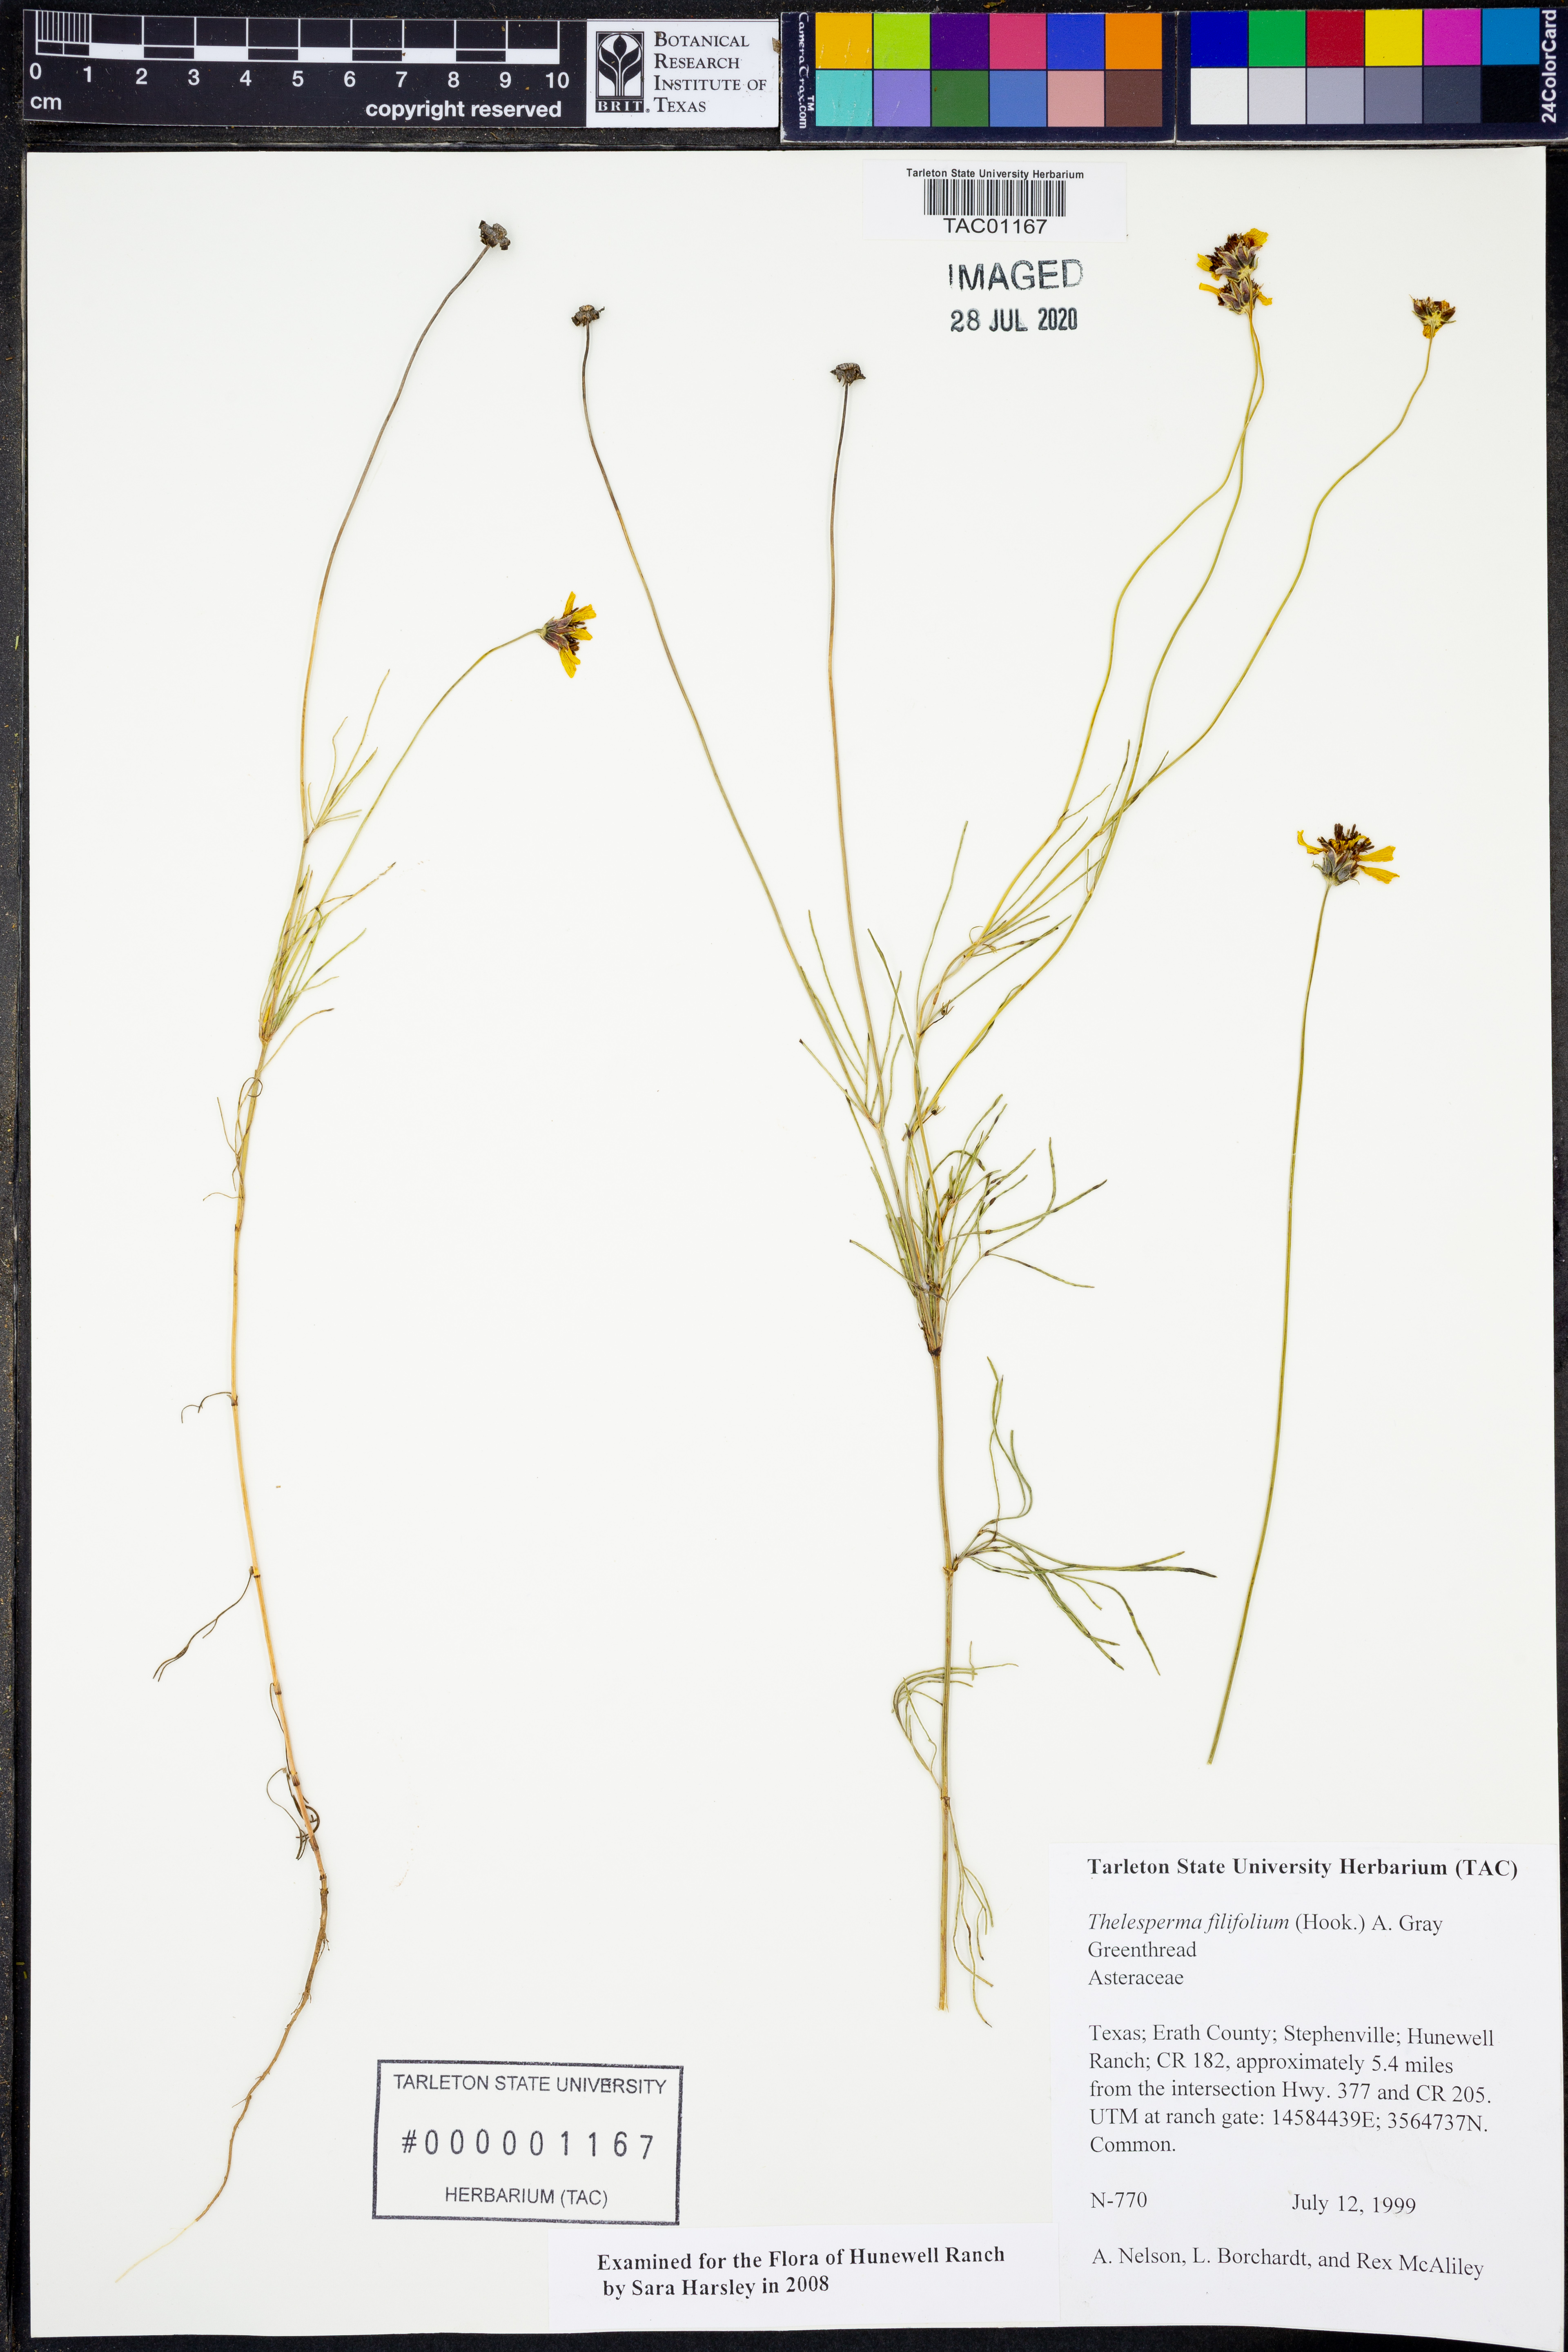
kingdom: Plantae
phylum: Tracheophyta
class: Magnoliopsida
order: Asterales
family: Asteraceae
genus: Thelesperma
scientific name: Thelesperma filifolium
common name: Stiff greenthread
